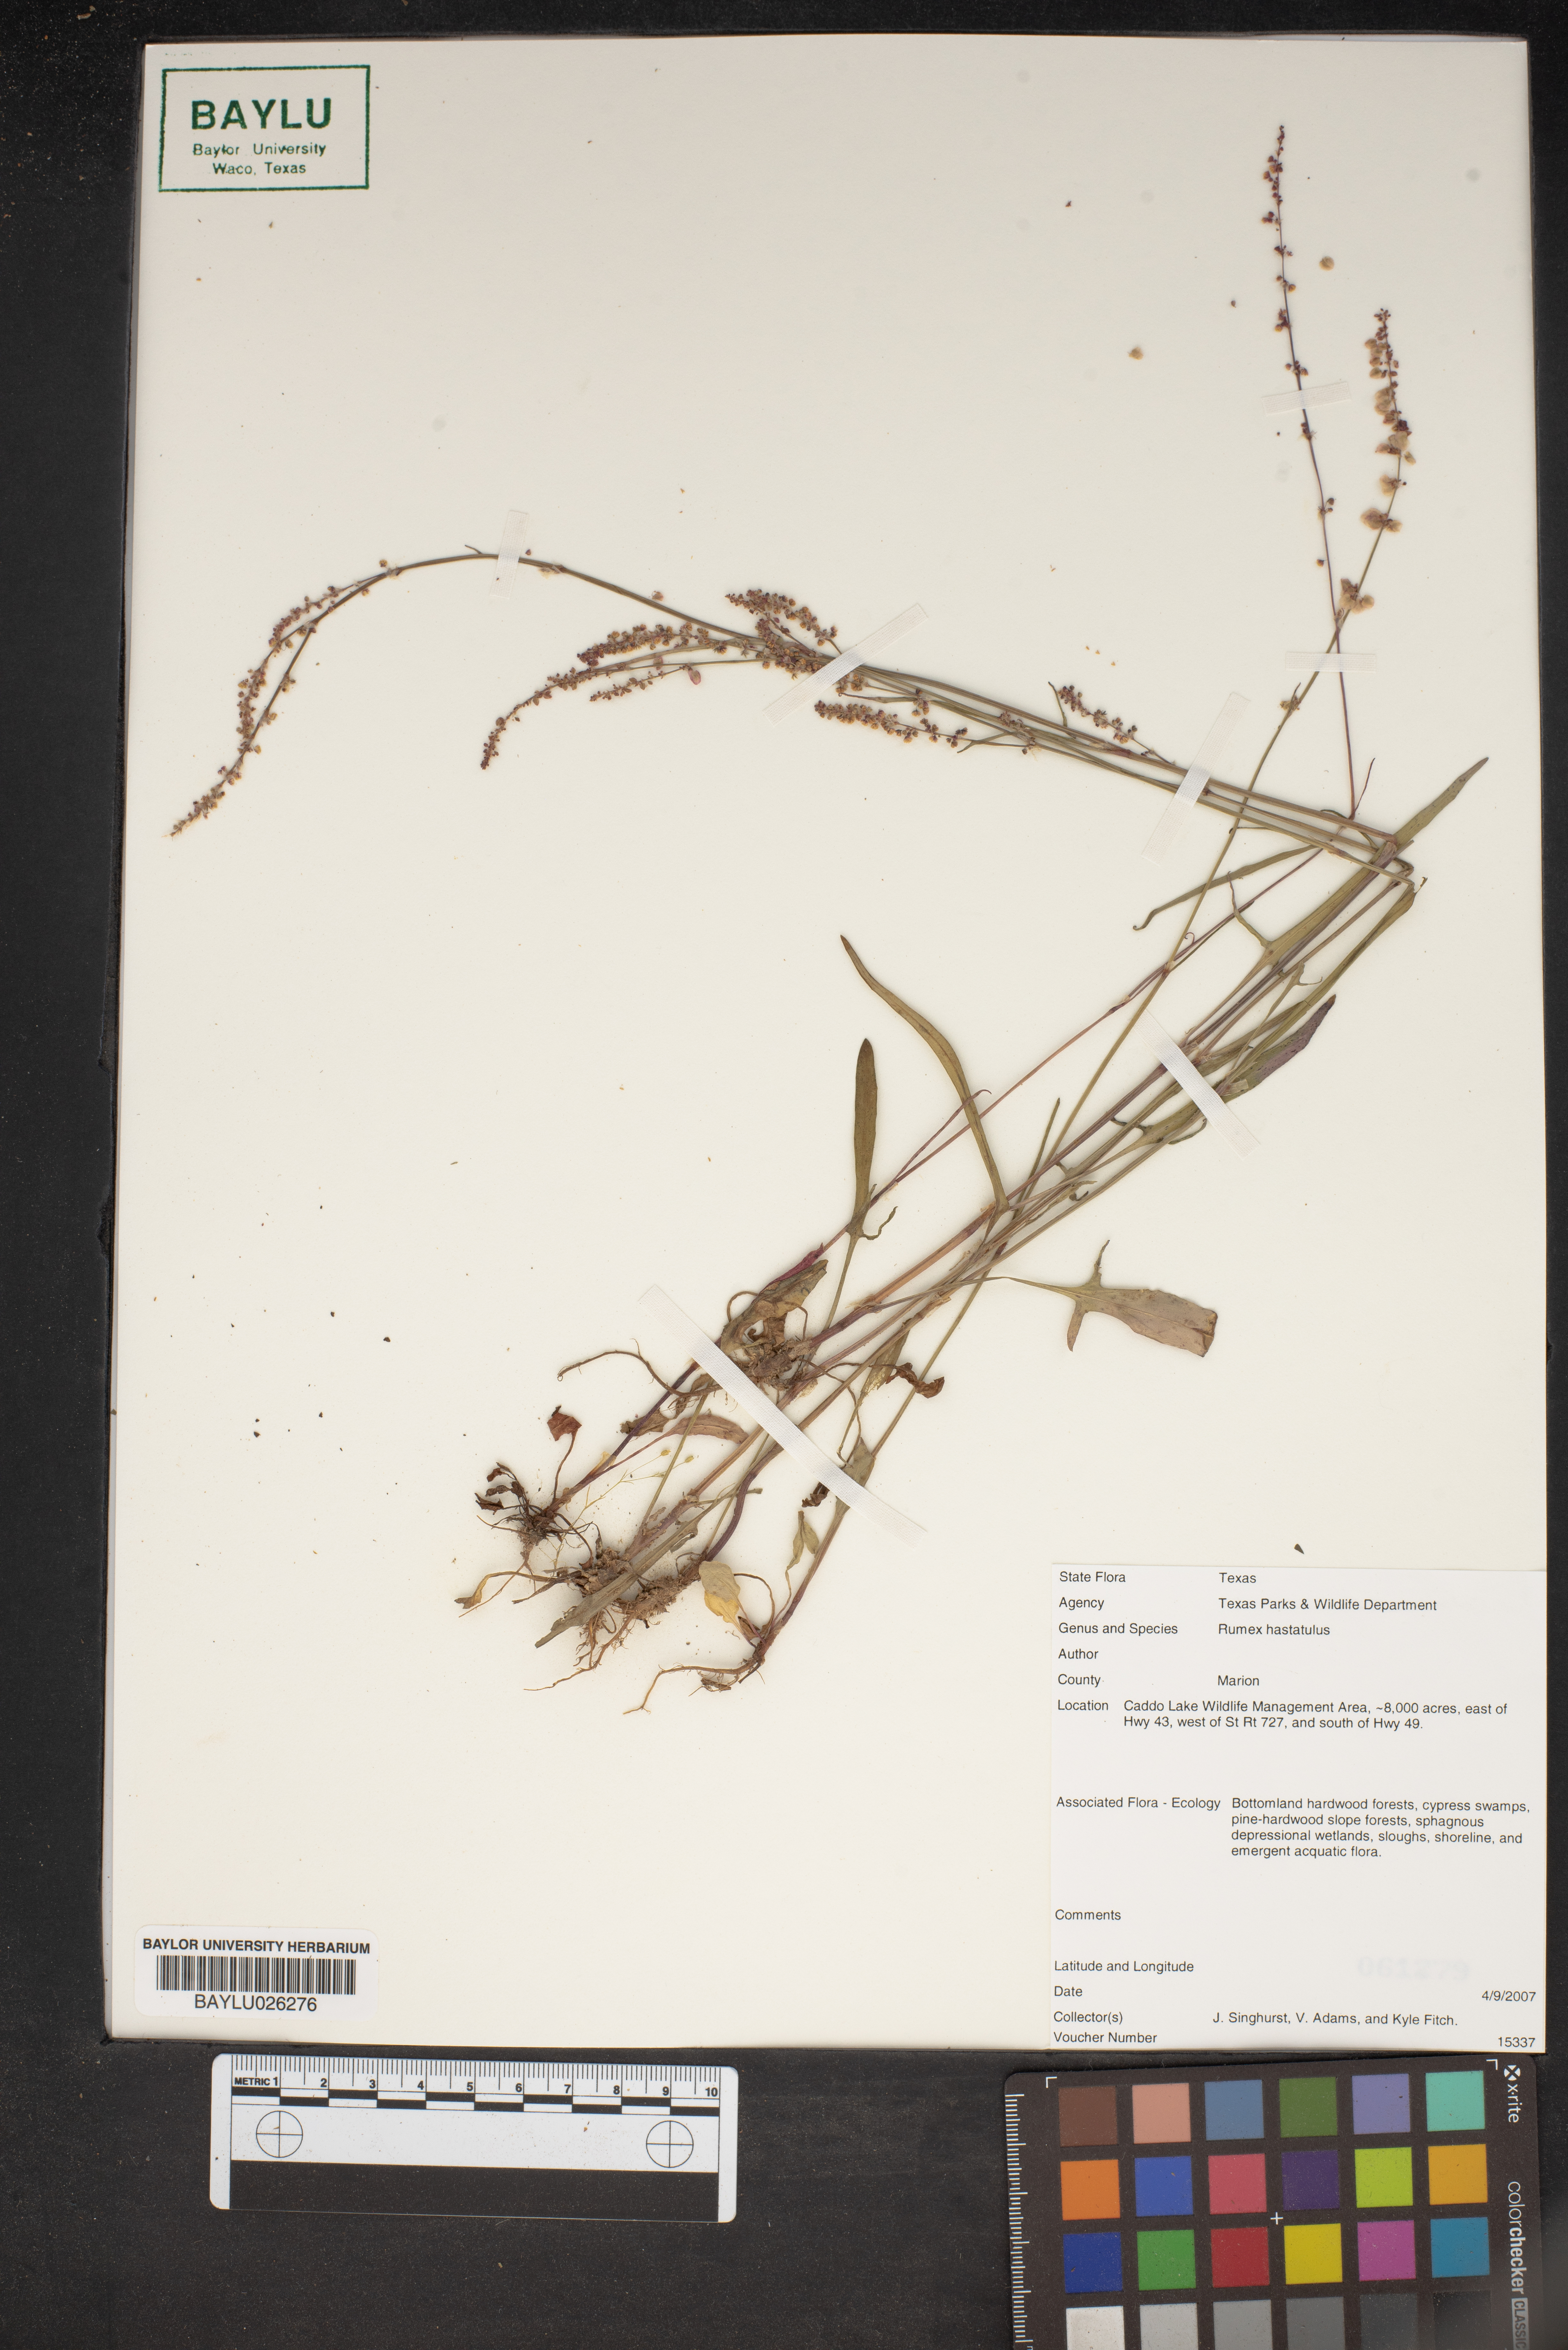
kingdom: Plantae
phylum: Tracheophyta
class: Magnoliopsida
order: Caryophyllales
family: Polygonaceae
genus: Rumex
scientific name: Rumex hastatulus
